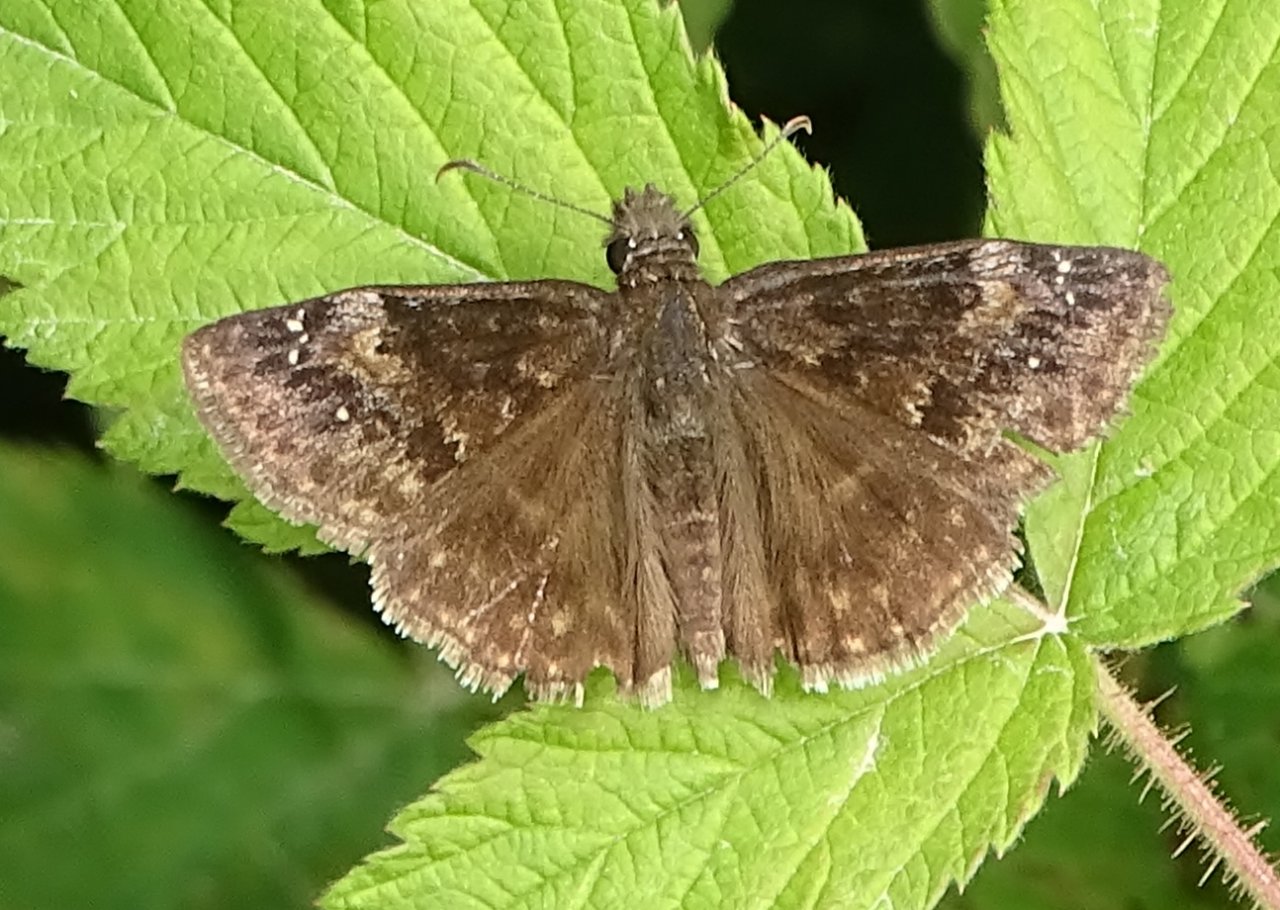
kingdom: Animalia
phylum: Arthropoda
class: Insecta
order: Lepidoptera
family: Hesperiidae
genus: Gesta
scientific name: Gesta
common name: Wild Indigo Duskywing
